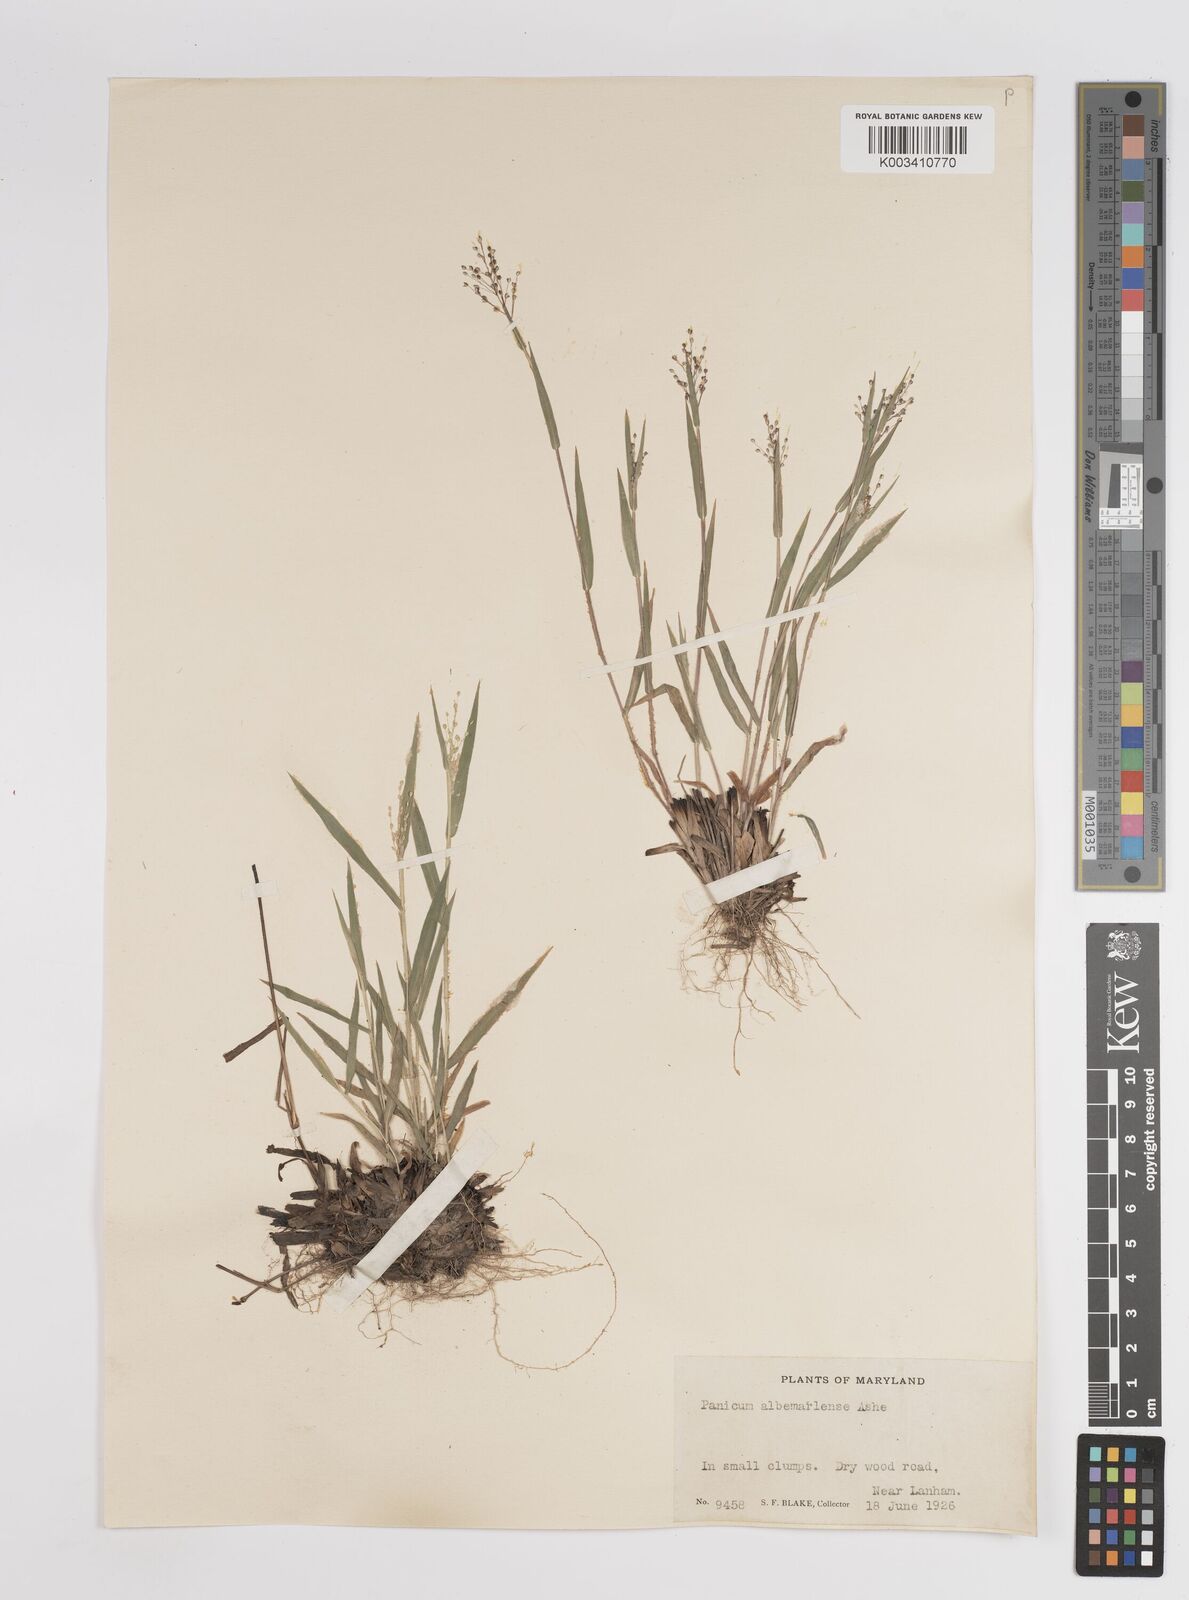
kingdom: Plantae
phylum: Tracheophyta
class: Liliopsida
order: Poales
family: Poaceae
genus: Dichanthelium
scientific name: Dichanthelium meridionale
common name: Mat panicgrass
